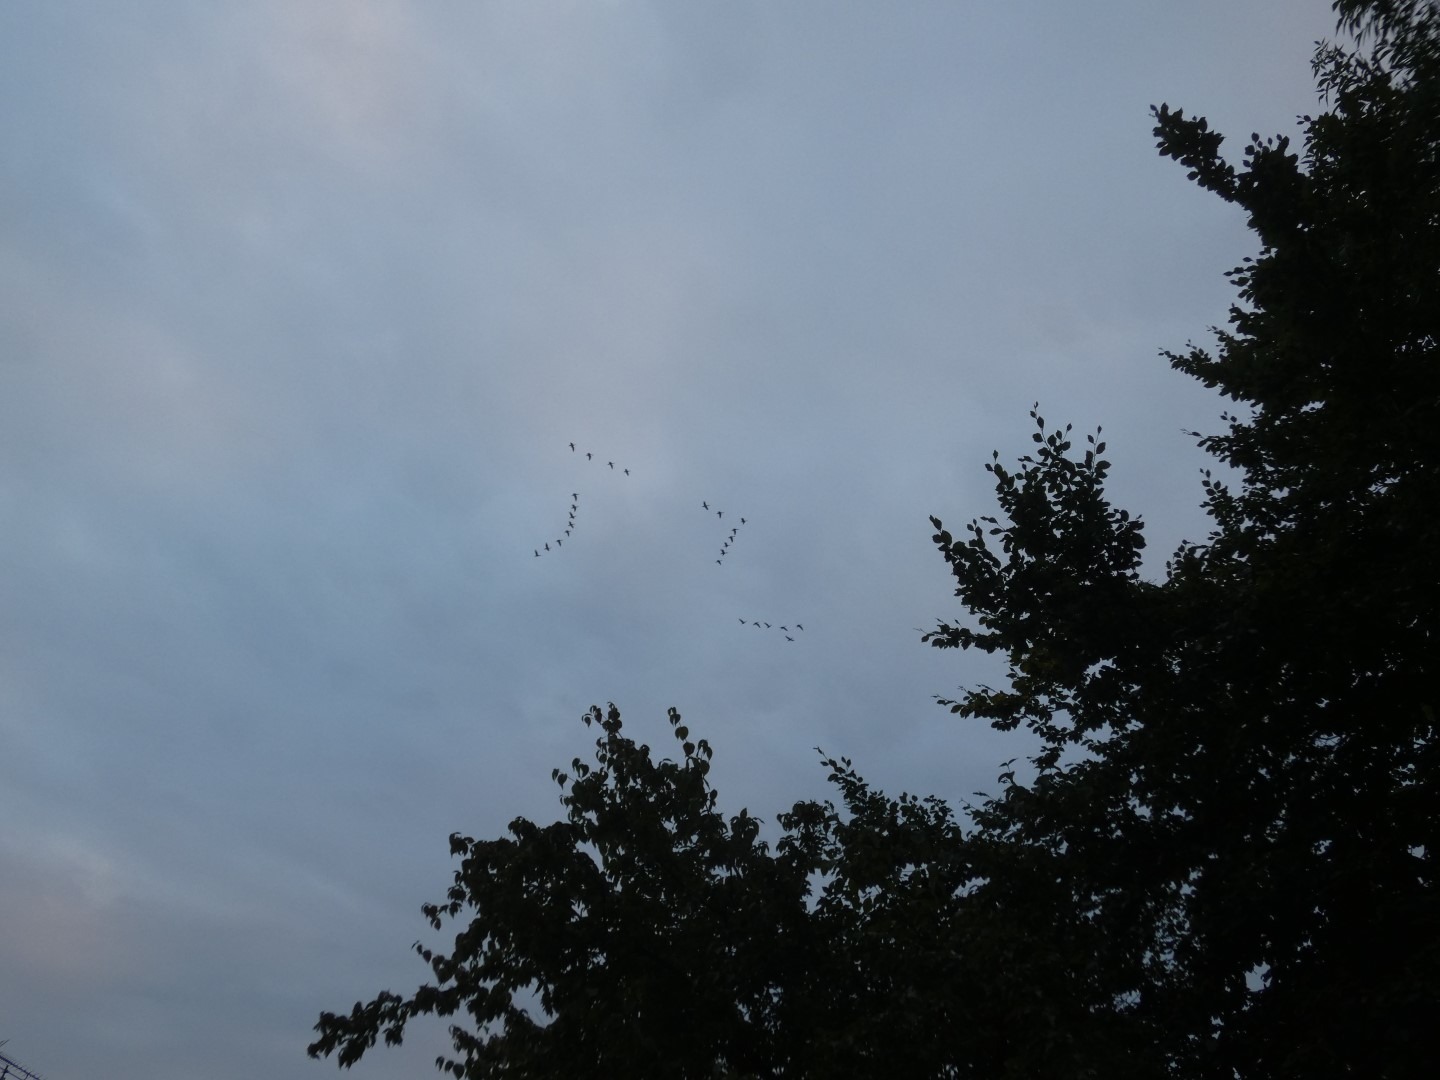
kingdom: Animalia
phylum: Chordata
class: Aves
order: Anseriformes
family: Anatidae
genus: Anser
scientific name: Anser anser
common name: Grågås
